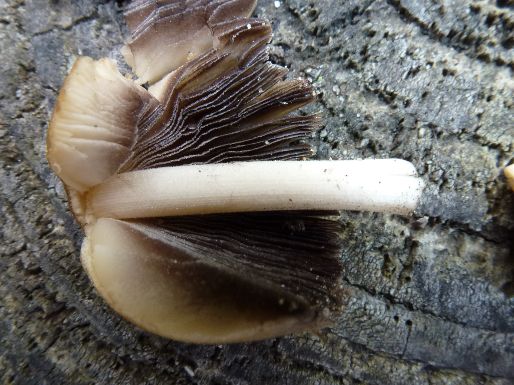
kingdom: Fungi
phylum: Basidiomycota
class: Agaricomycetes
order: Agaricales
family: Psathyrellaceae
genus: Coprinellus
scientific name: Coprinellus micaceus
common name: glimmer-blækhat
